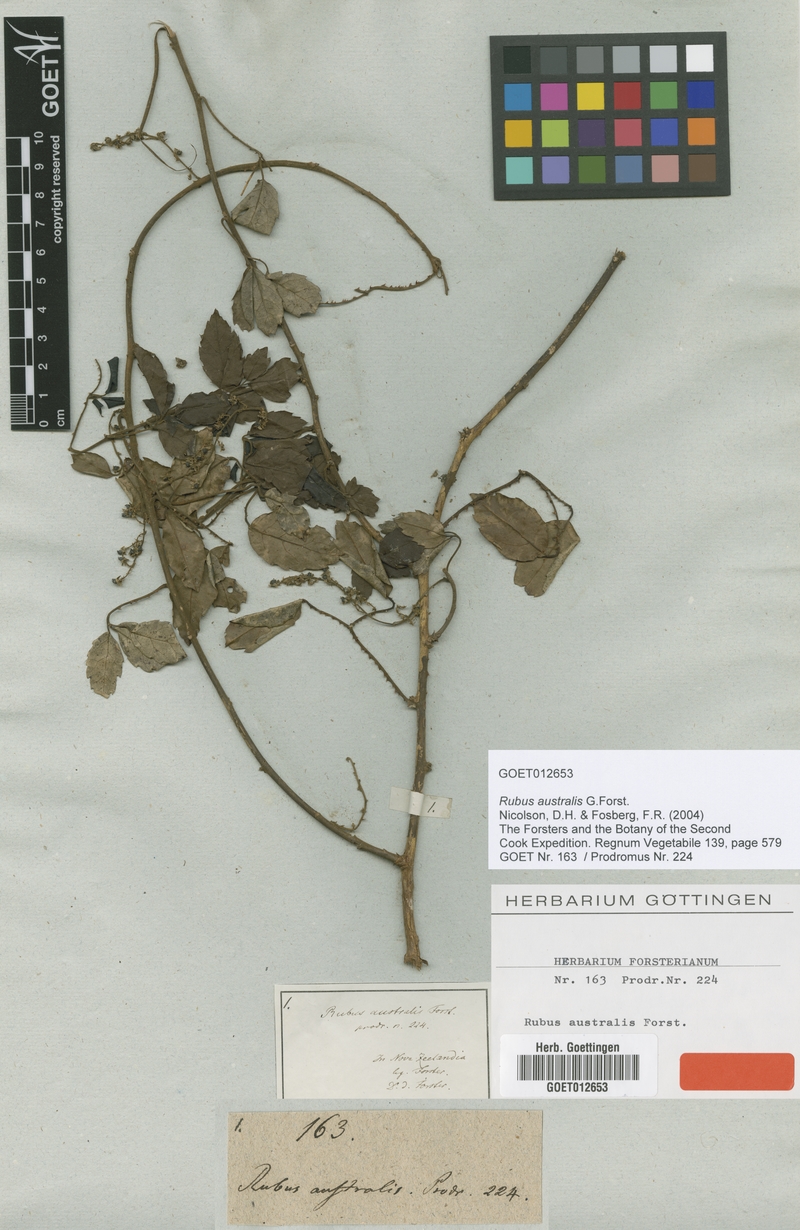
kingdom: Plantae
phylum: Tracheophyta
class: Magnoliopsida
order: Rosales
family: Rosaceae
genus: Rubus
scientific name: Rubus australis
